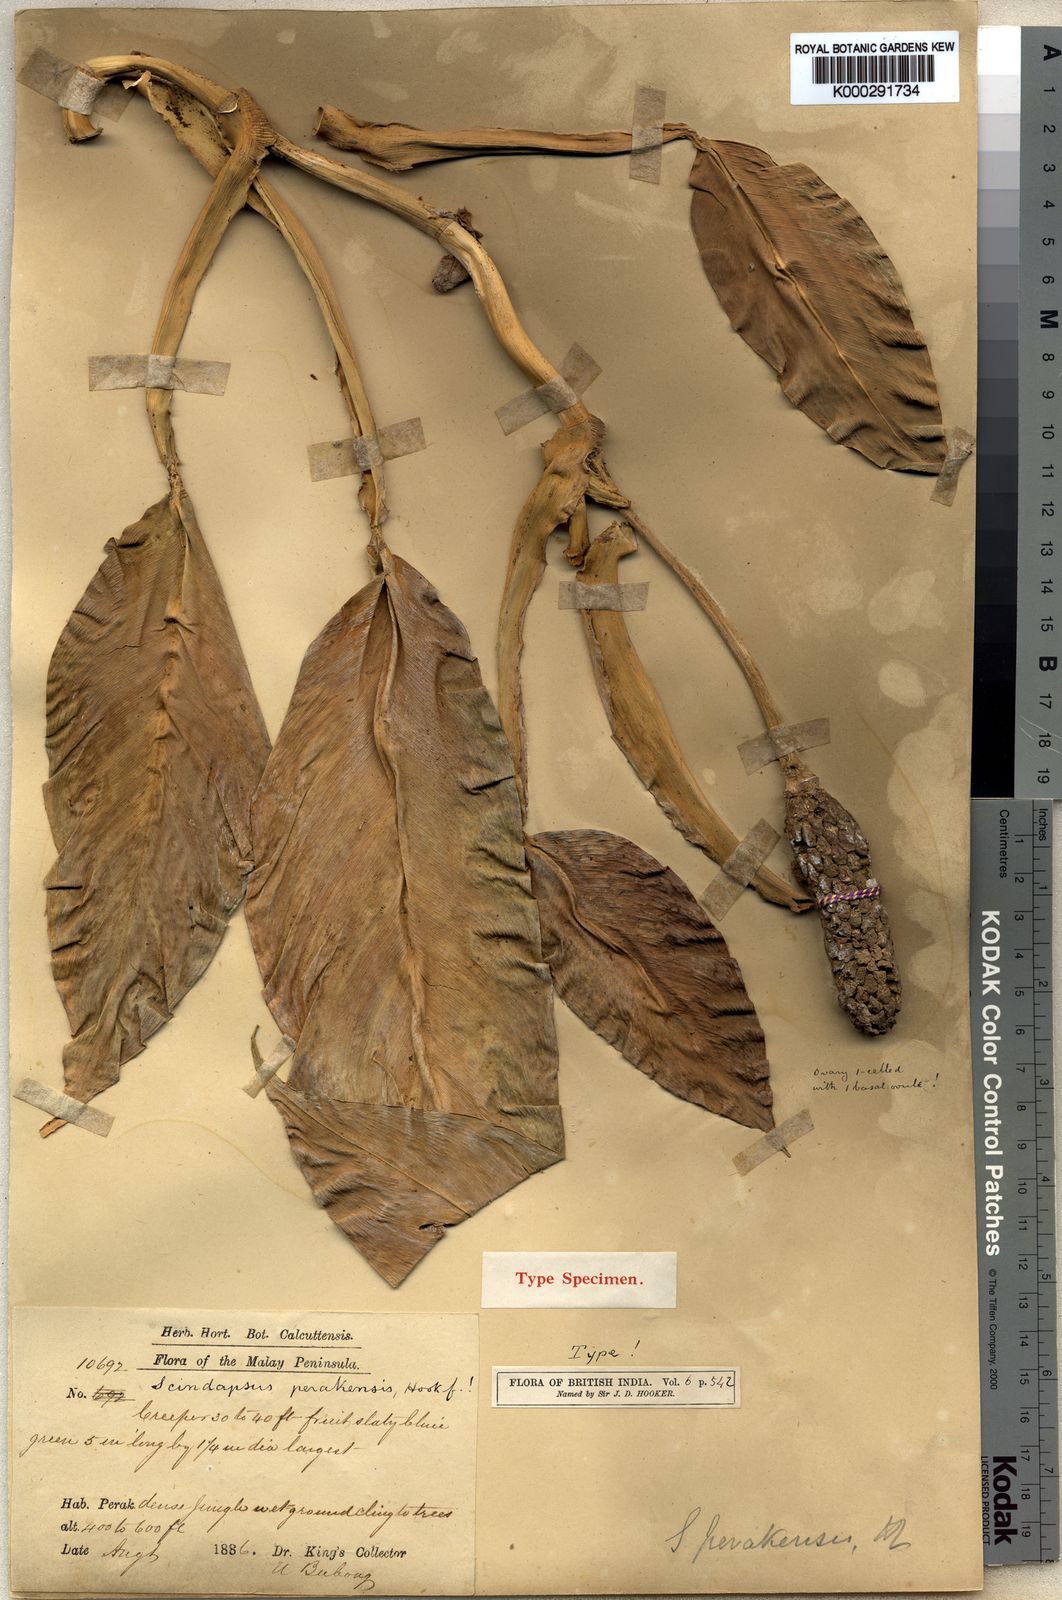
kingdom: Plantae
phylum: Tracheophyta
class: Liliopsida
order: Alismatales
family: Araceae
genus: Scindapsus
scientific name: Scindapsus perakensis
